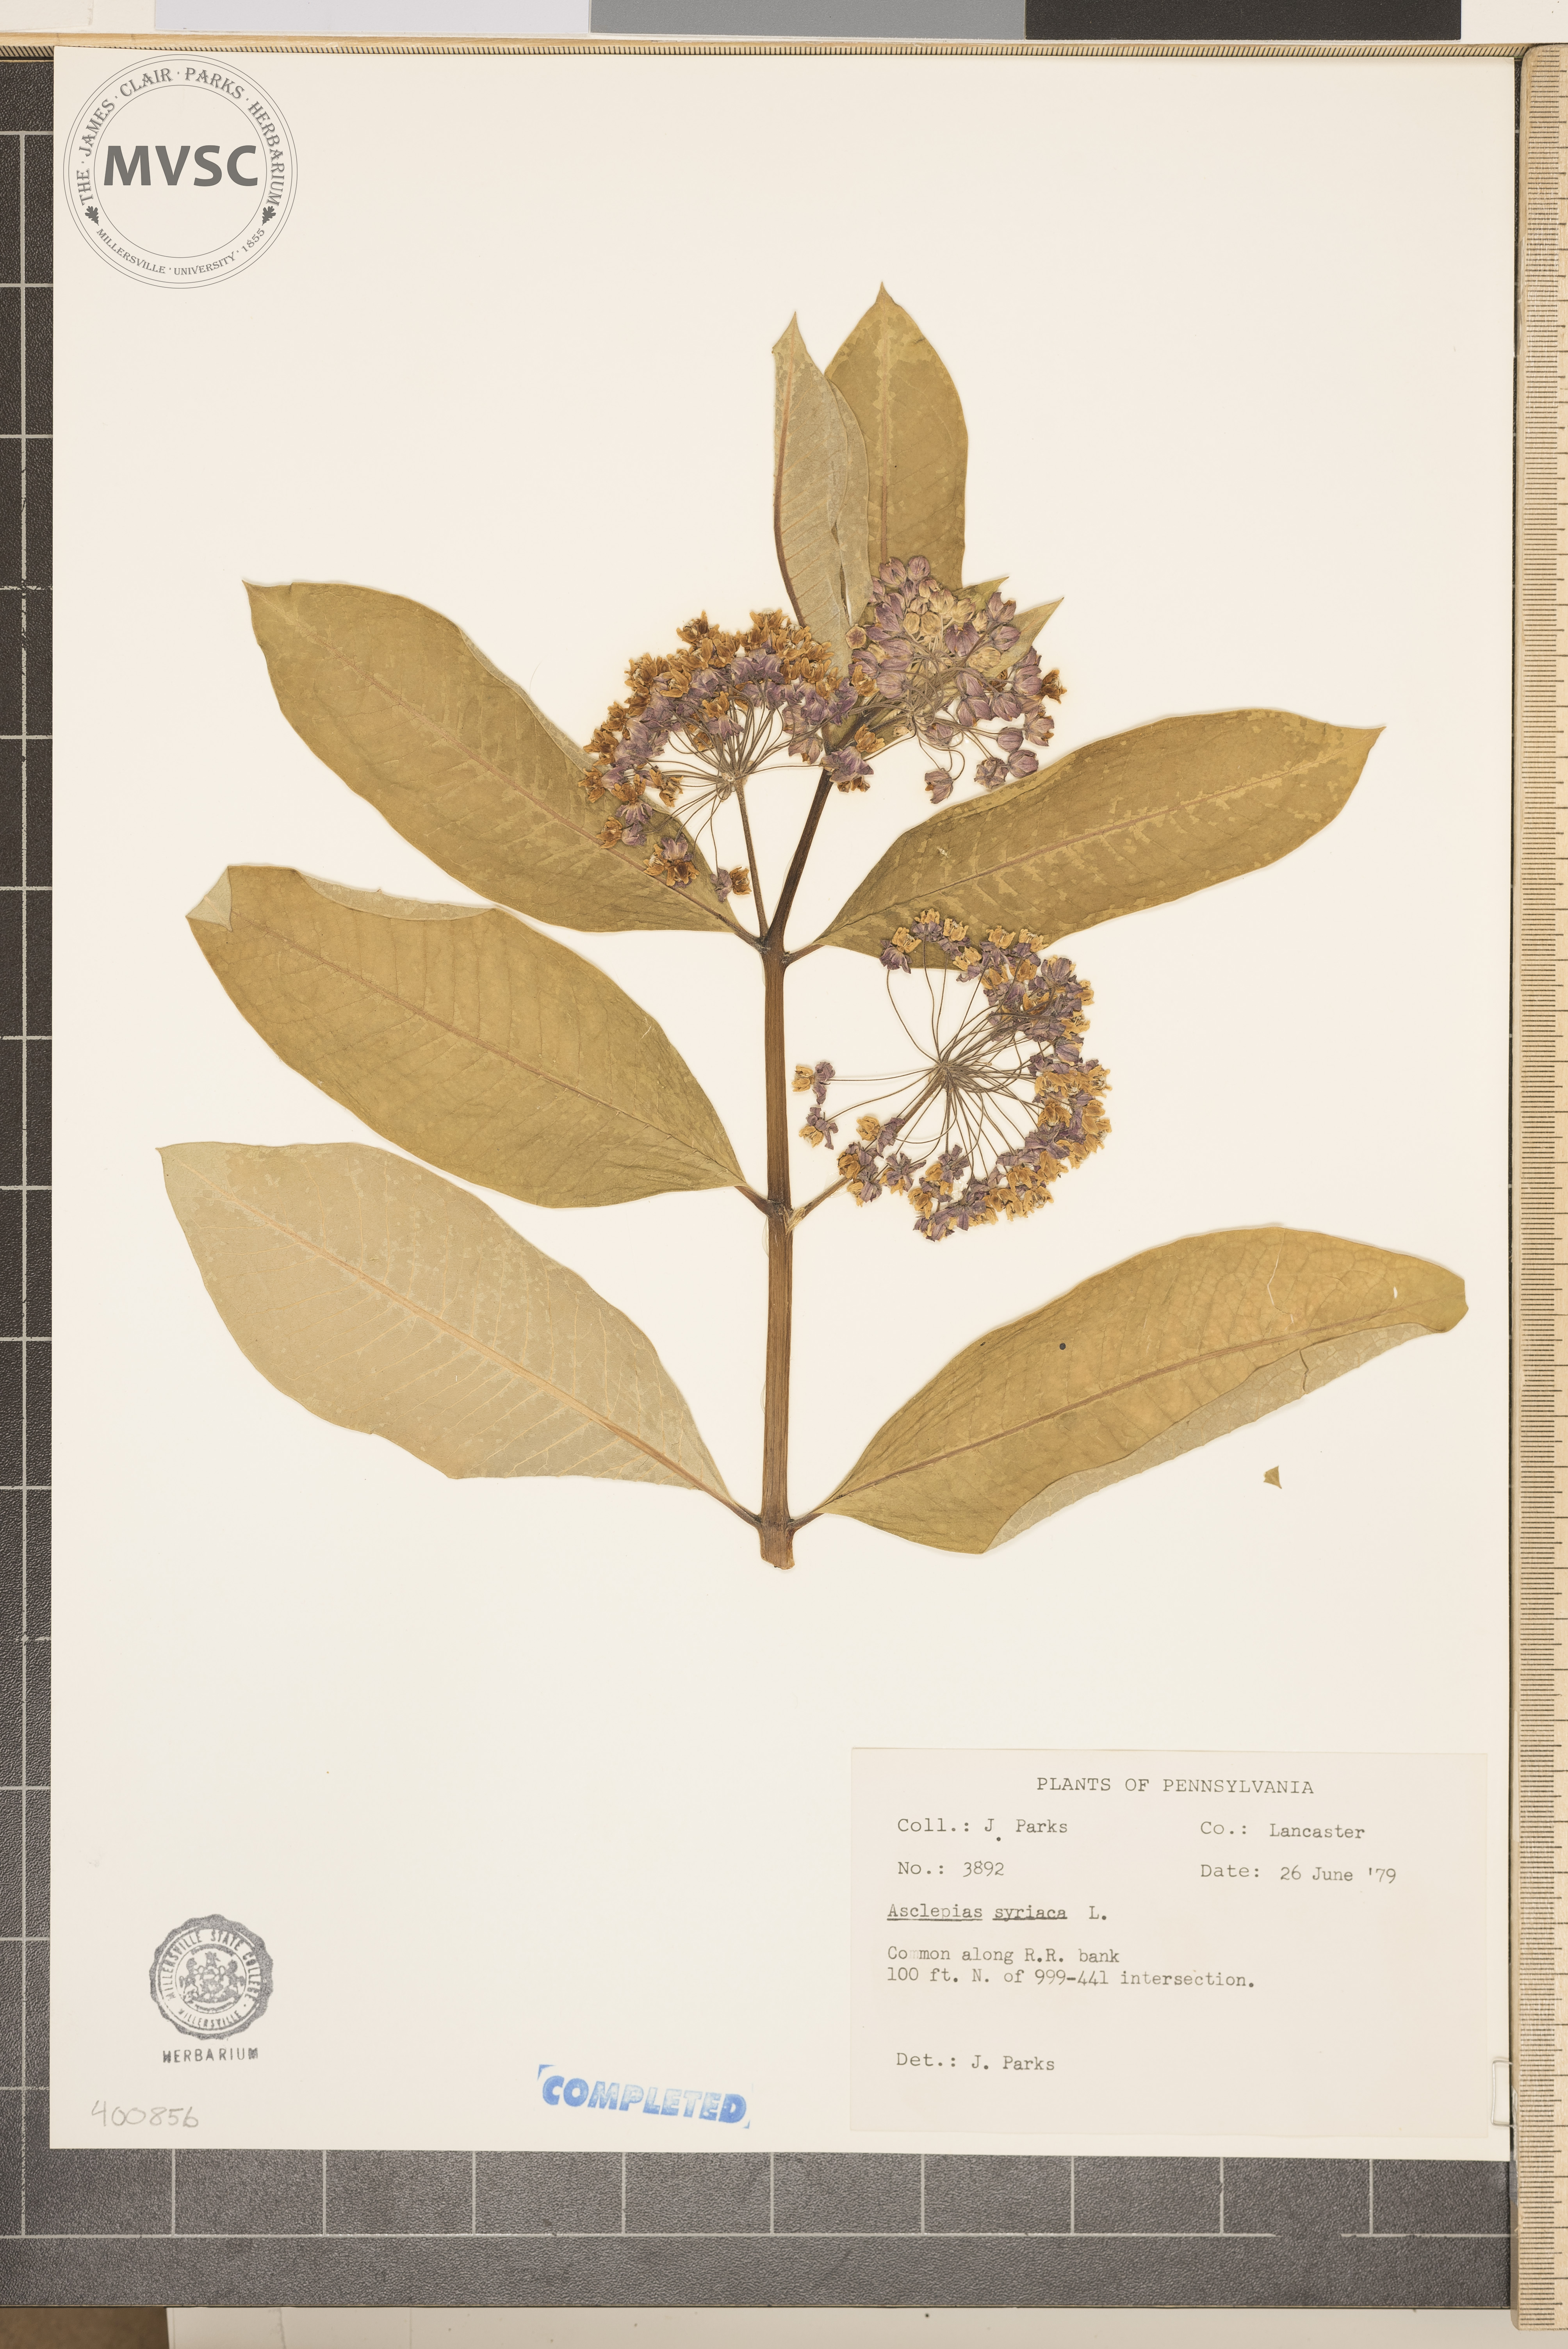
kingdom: Plantae
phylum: Tracheophyta
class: Magnoliopsida
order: Gentianales
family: Apocynaceae
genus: Asclepias
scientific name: Asclepias syriaca
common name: milkweed
